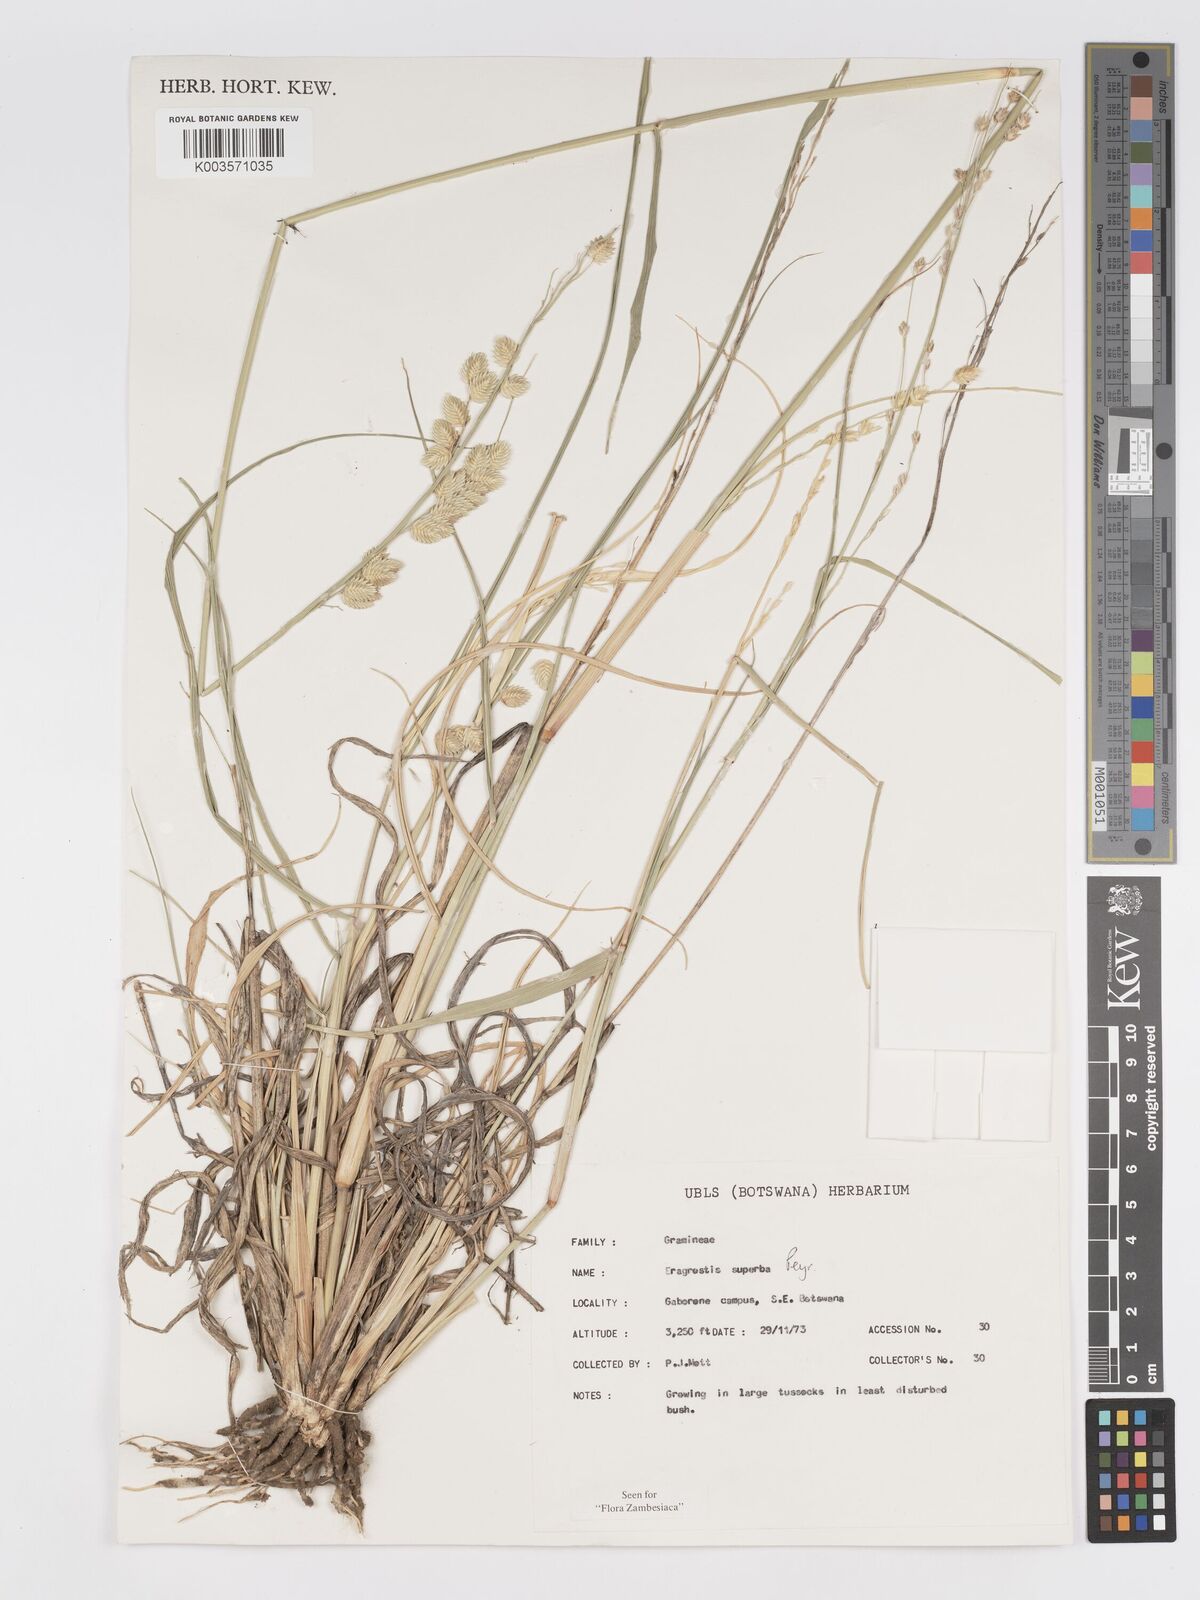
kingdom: Plantae
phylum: Tracheophyta
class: Liliopsida
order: Poales
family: Poaceae
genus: Eragrostis
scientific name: Eragrostis superba
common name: Wilman lovegrass
